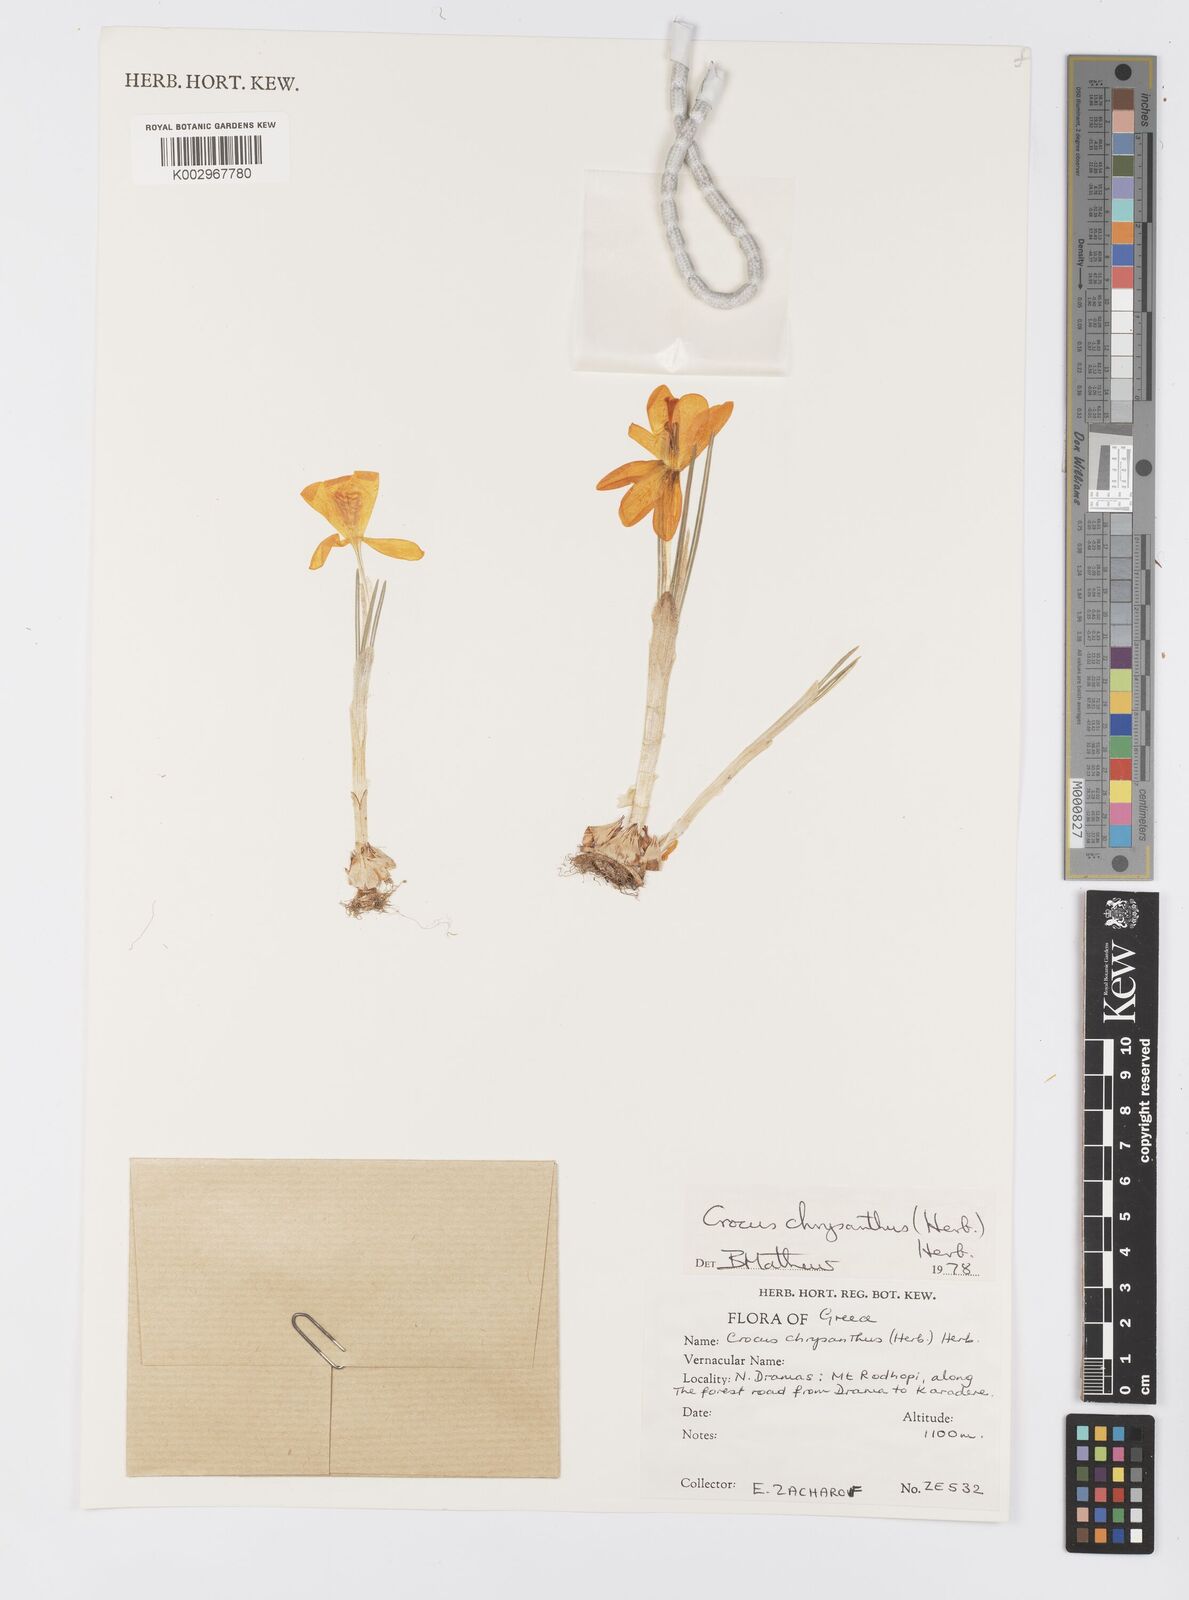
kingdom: Plantae
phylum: Tracheophyta
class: Liliopsida
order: Asparagales
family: Iridaceae
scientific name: Iridaceae
